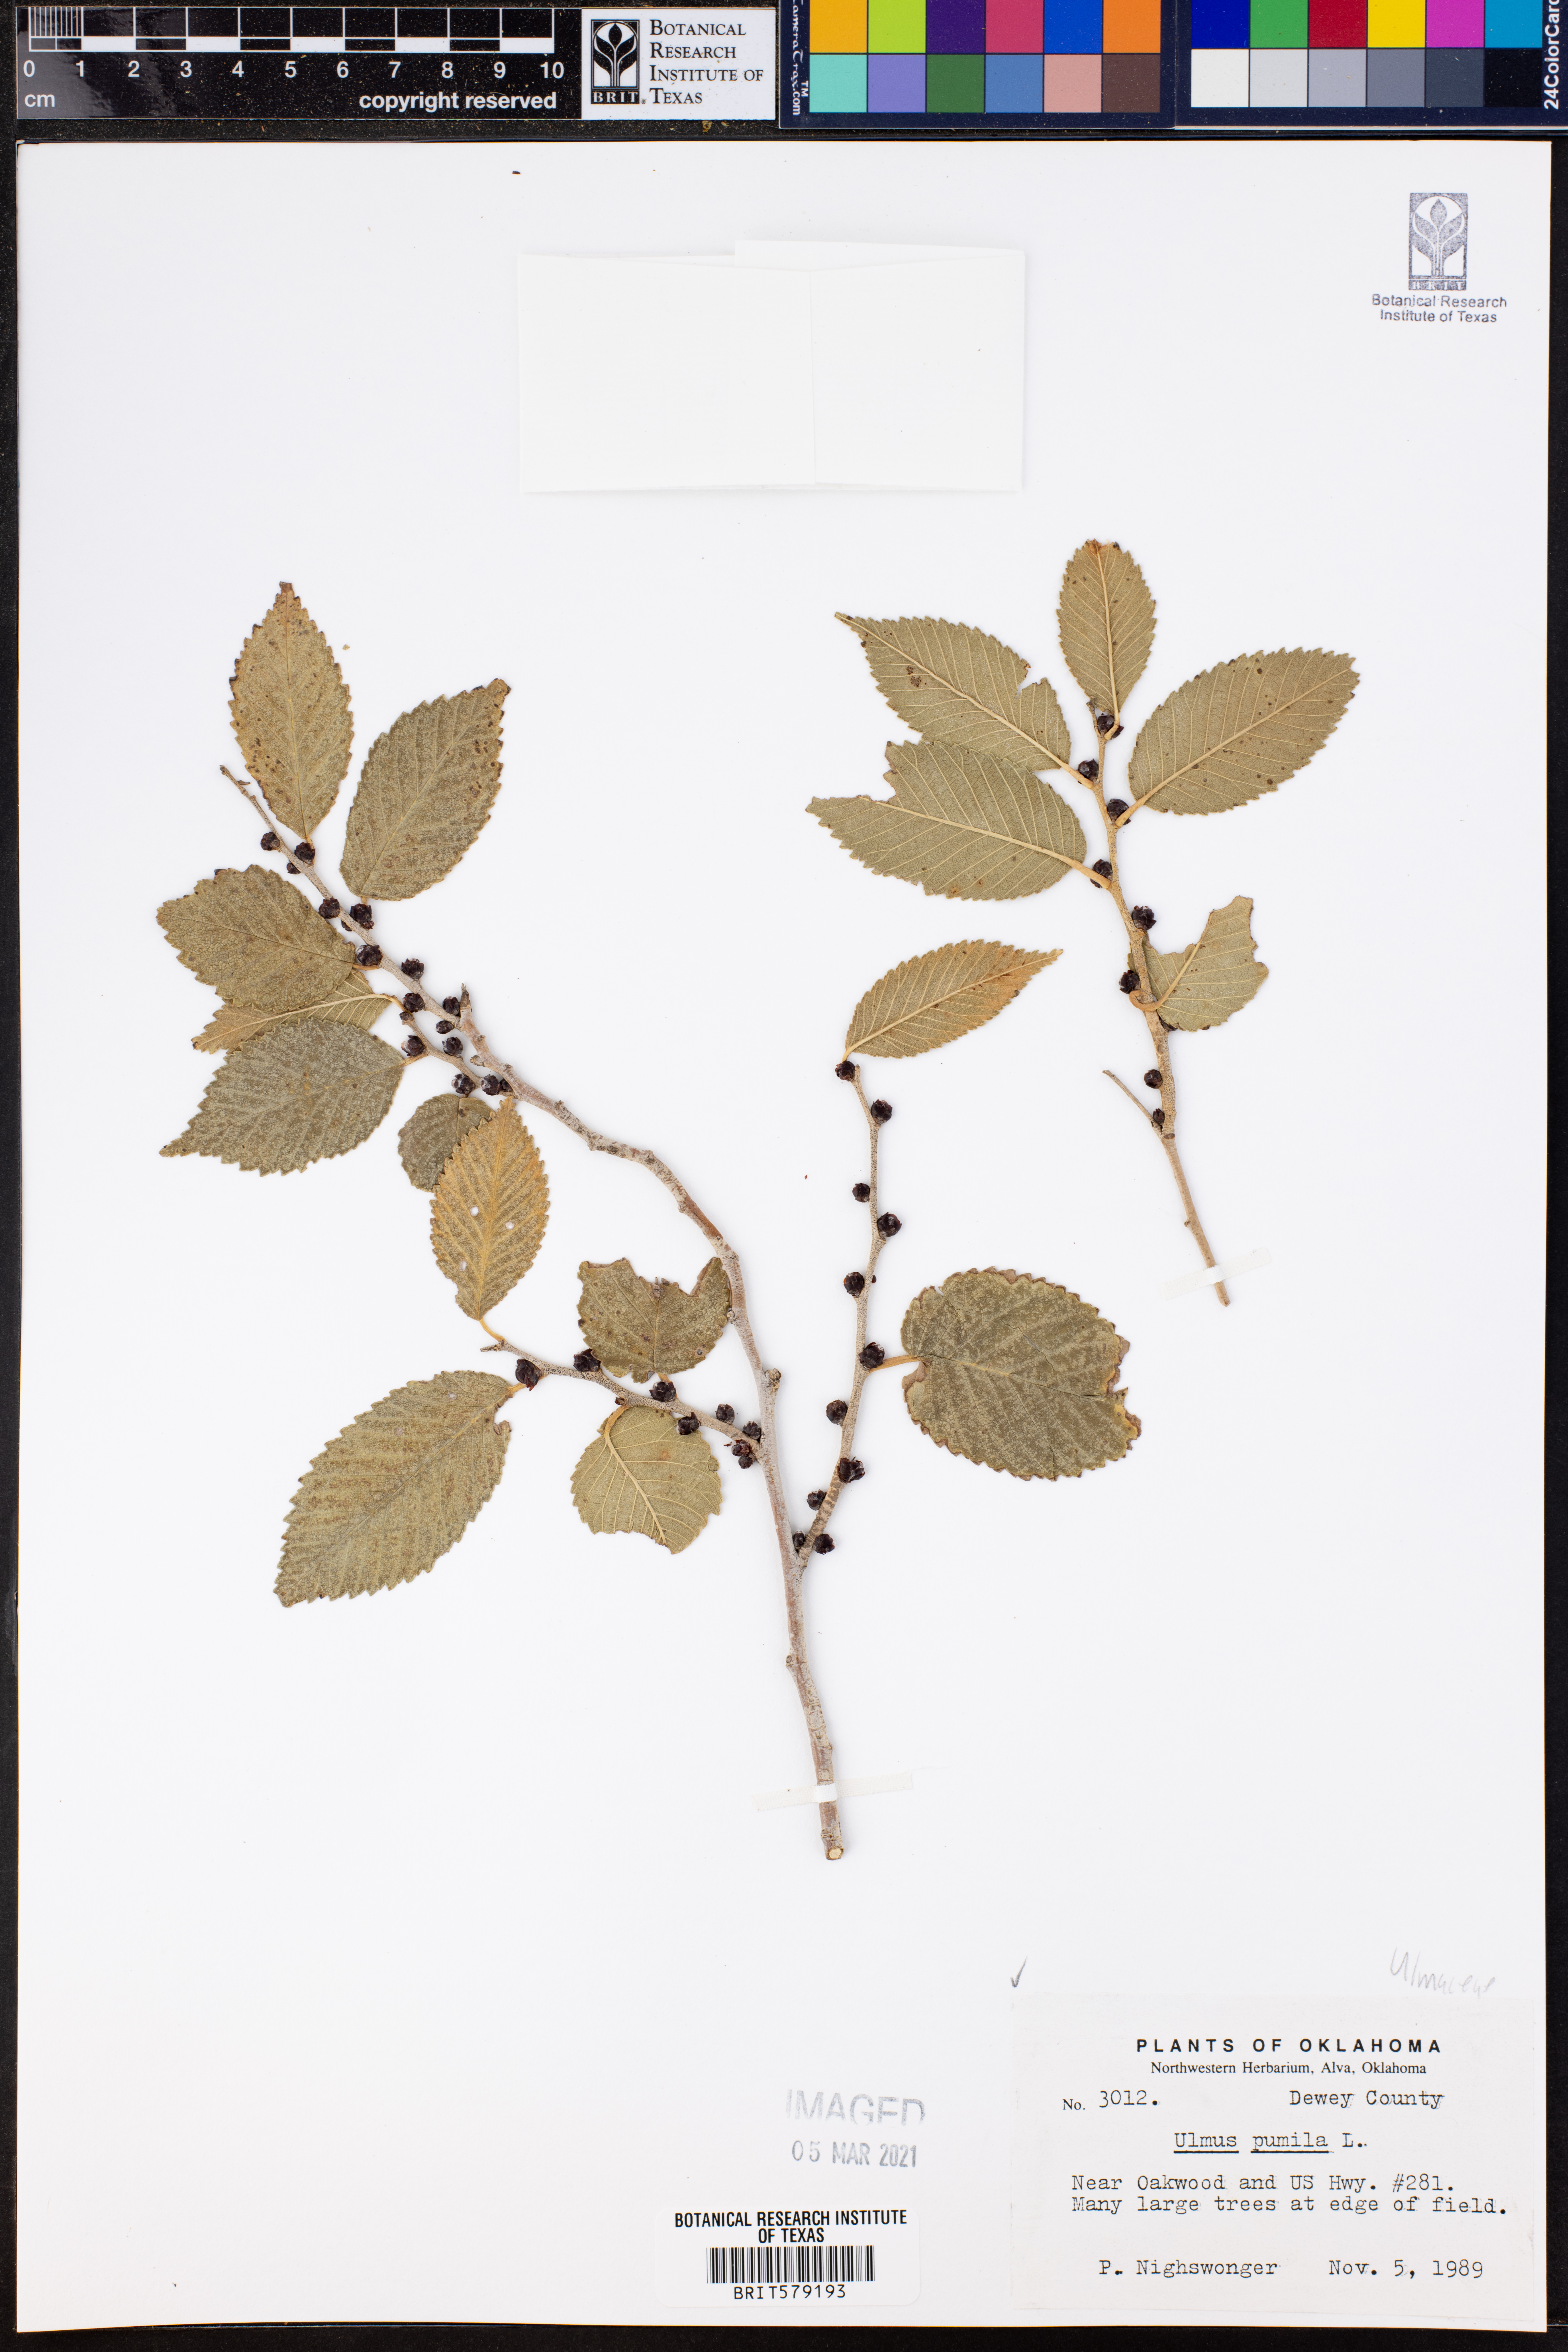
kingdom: Plantae
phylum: Tracheophyta
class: Magnoliopsida
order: Rosales
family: Ulmaceae
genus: Ulmus
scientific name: Ulmus pumila
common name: Siberian elm
